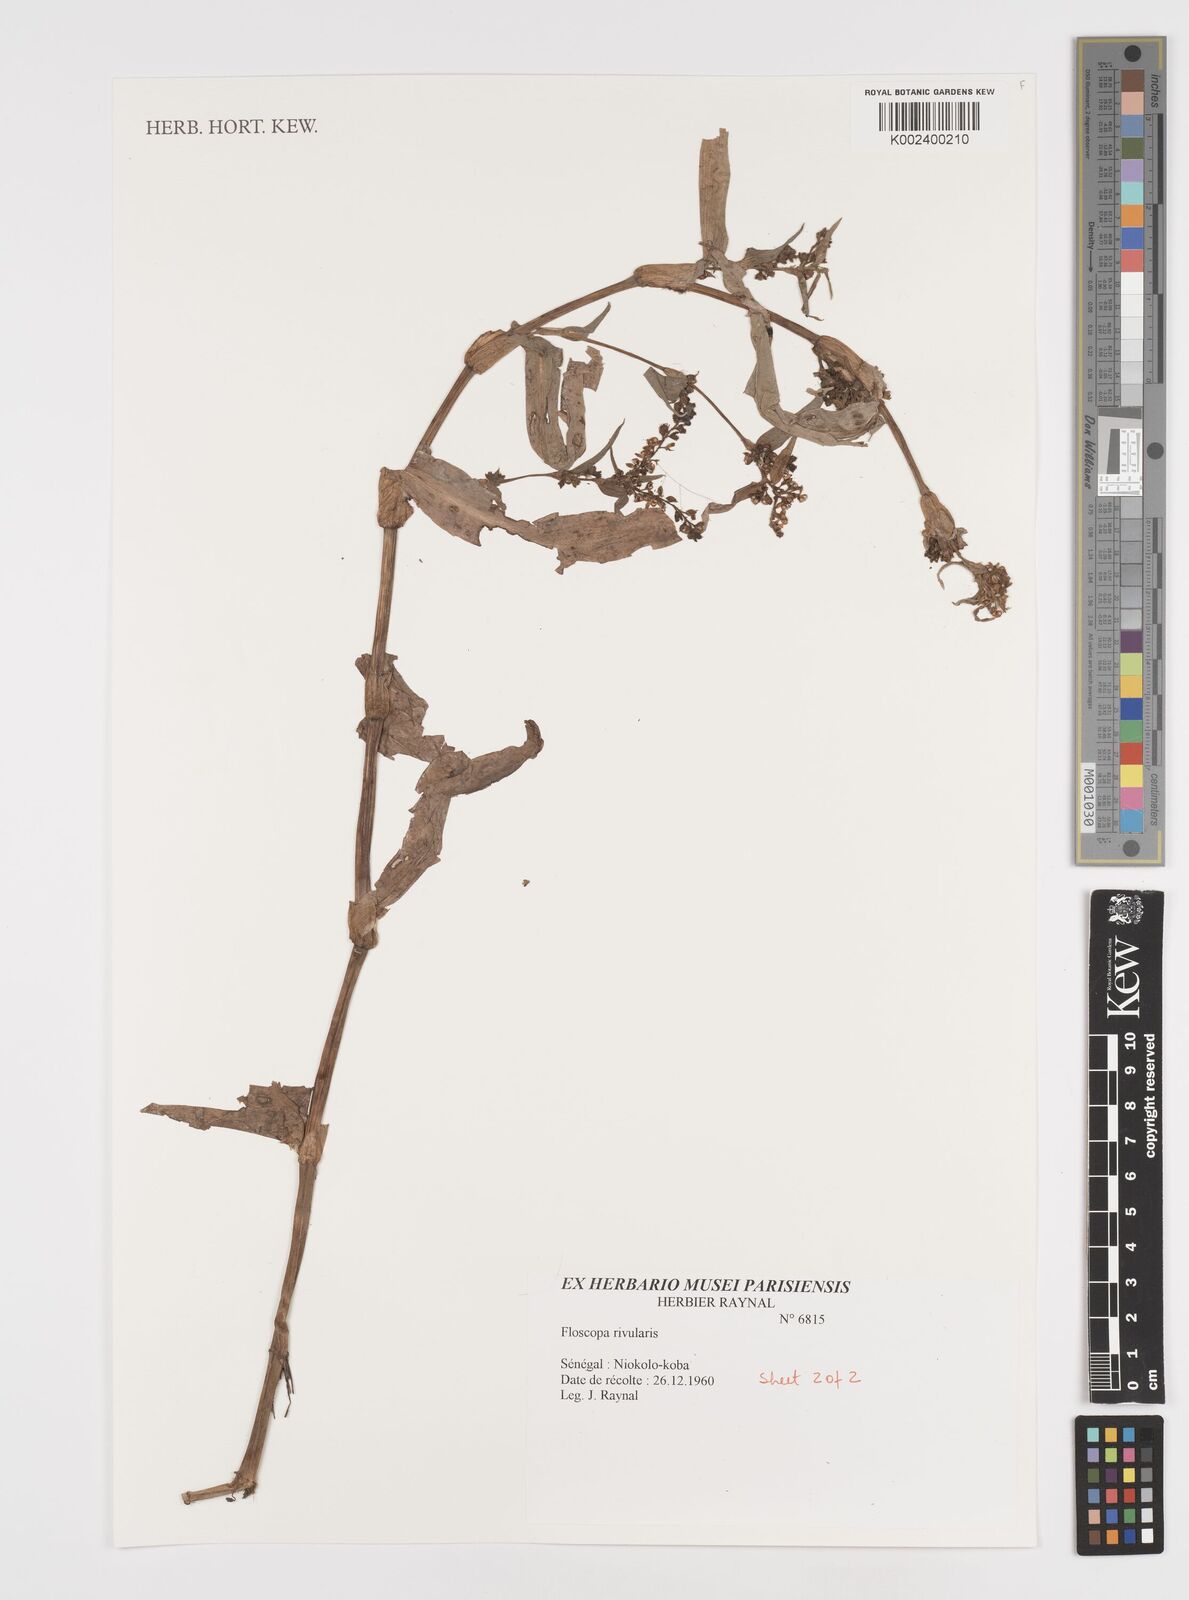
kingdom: Plantae
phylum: Tracheophyta
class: Liliopsida
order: Commelinales
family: Commelinaceae
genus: Floscopa
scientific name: Floscopa glomerata
